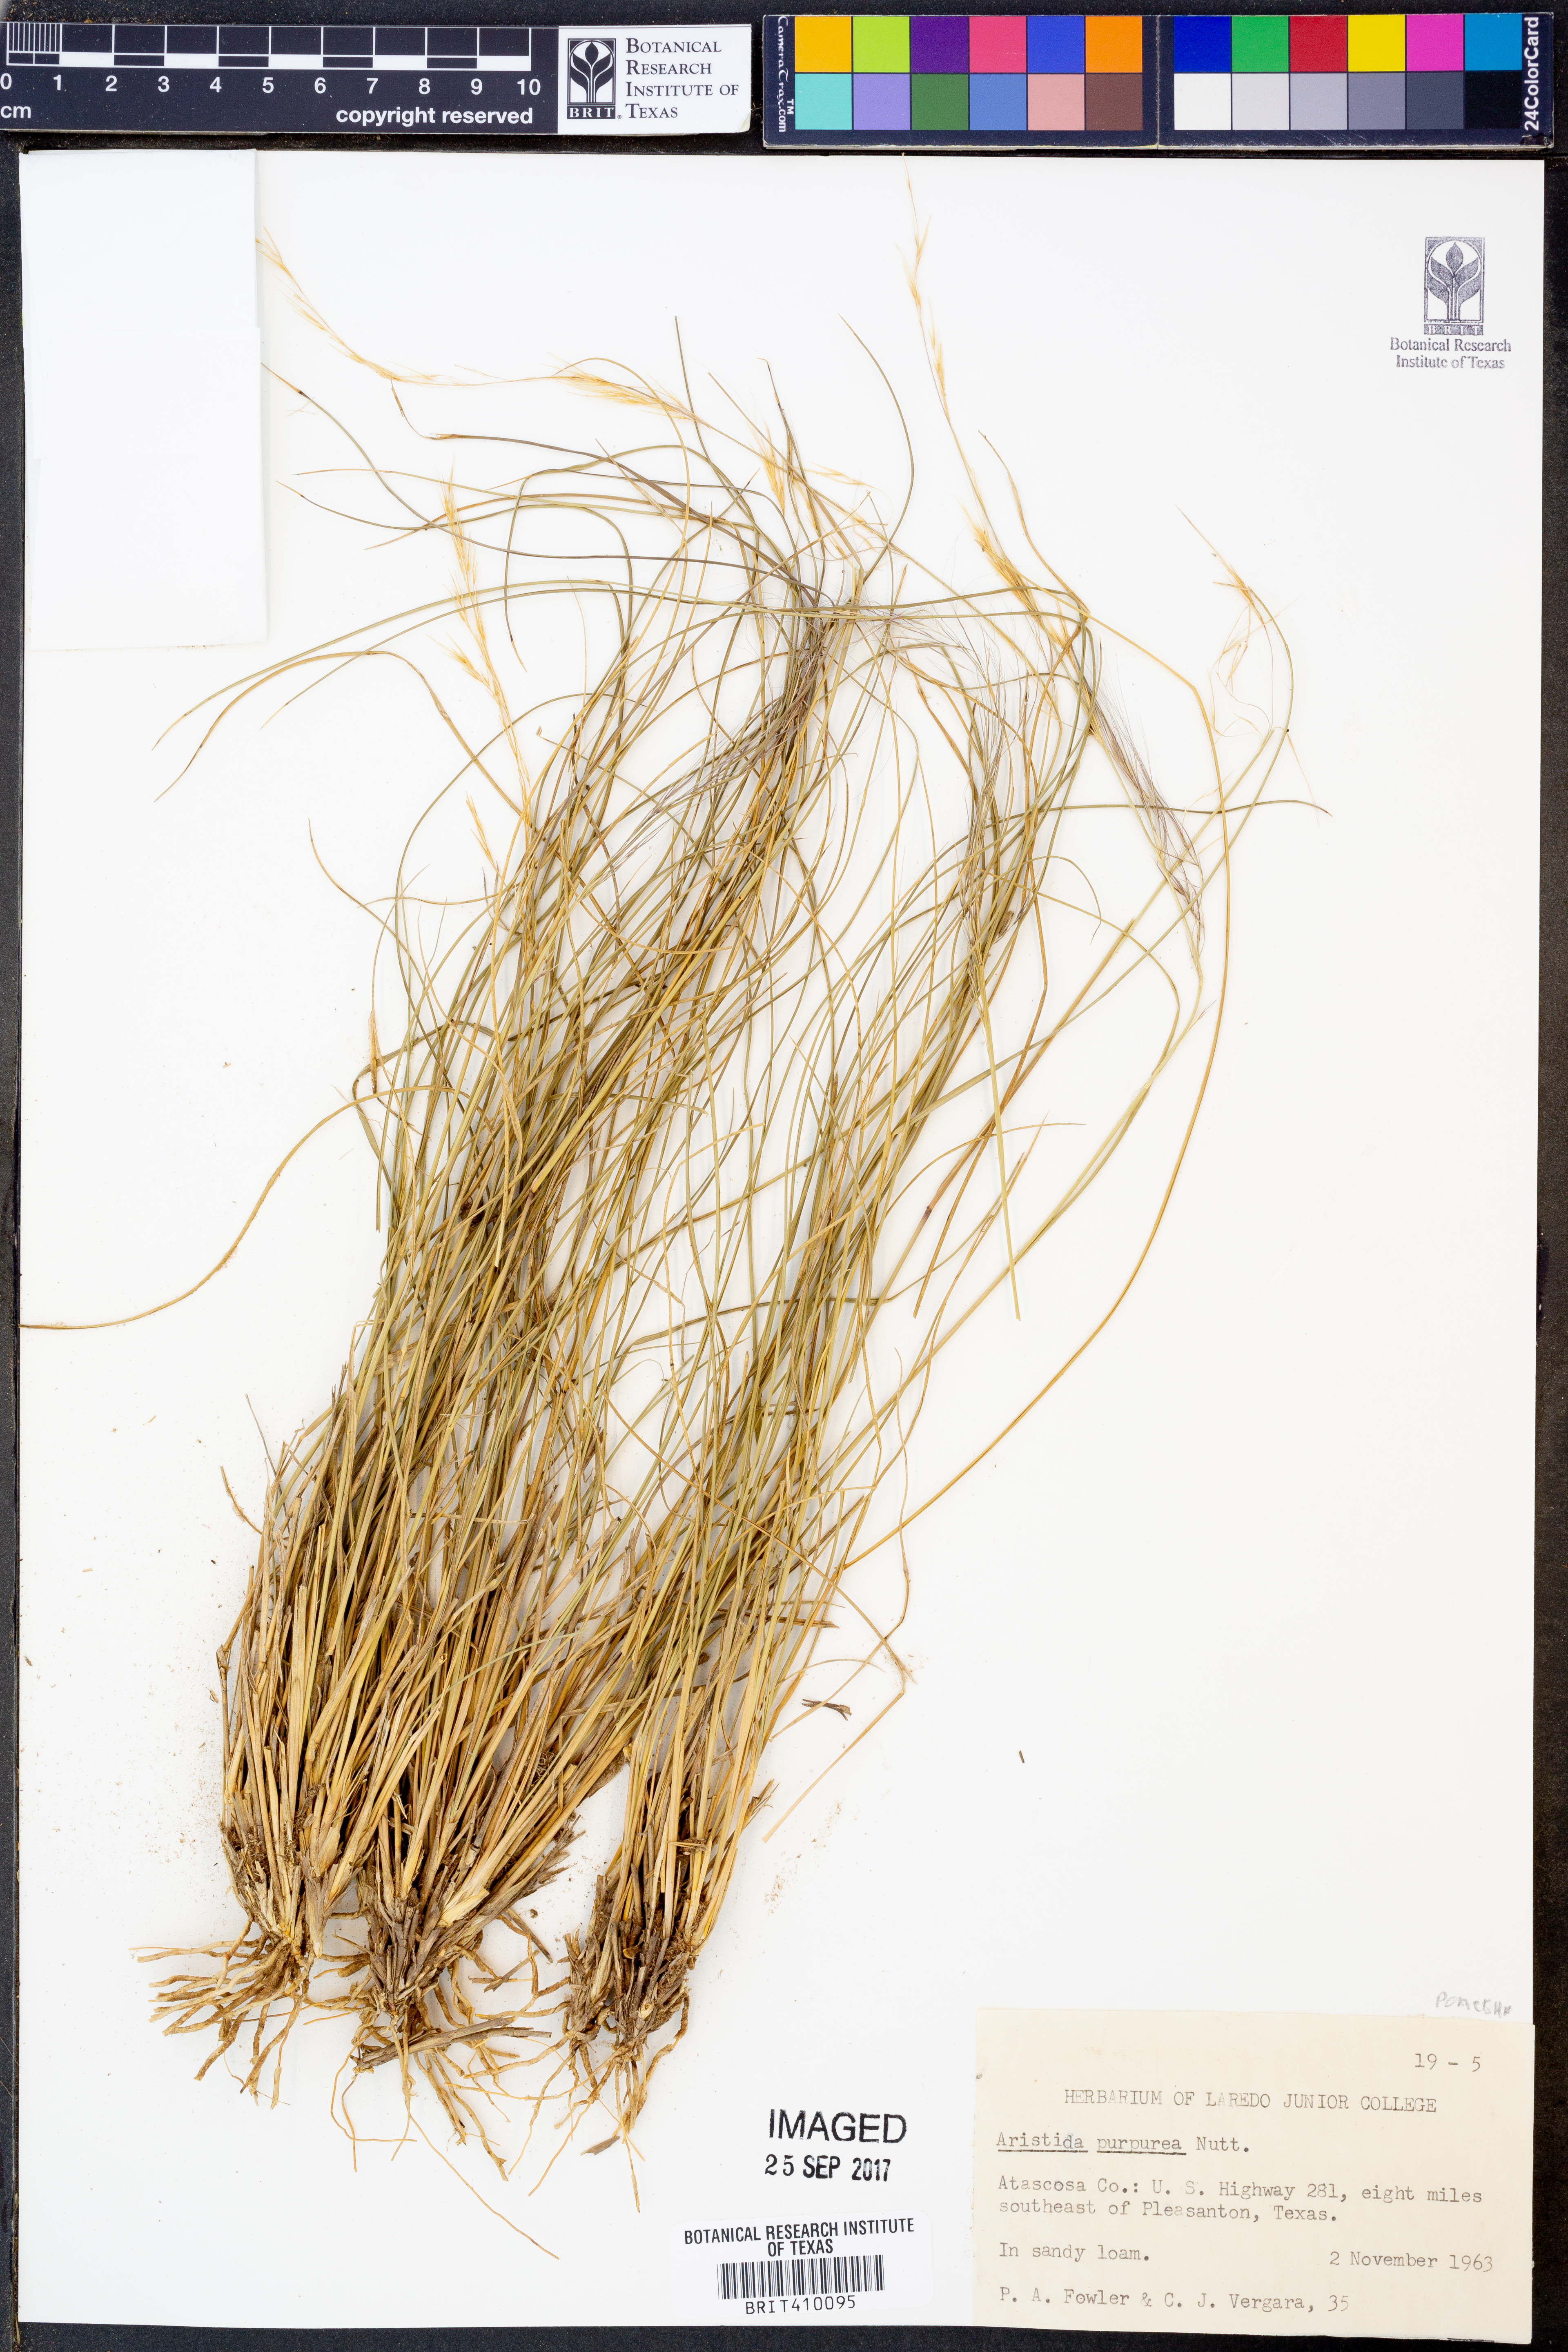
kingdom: Plantae
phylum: Tracheophyta
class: Liliopsida
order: Poales
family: Poaceae
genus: Aristida
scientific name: Aristida purpurea
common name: Purple threeawn
